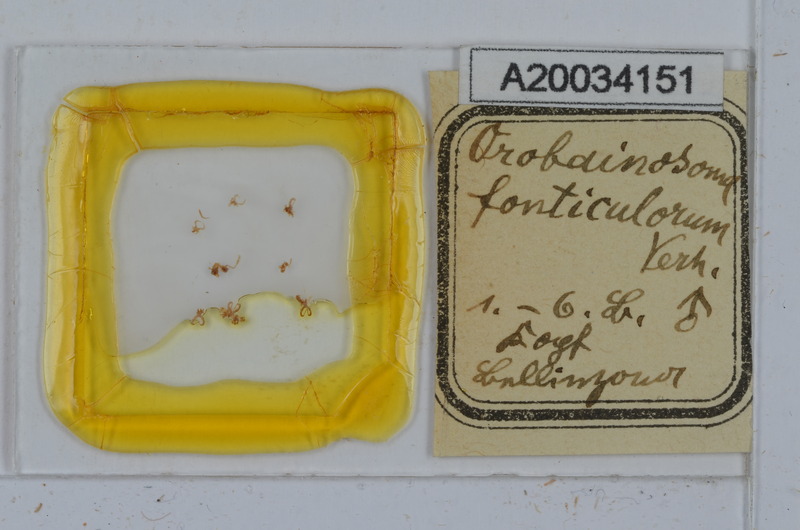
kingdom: Animalia
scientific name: Animalia
